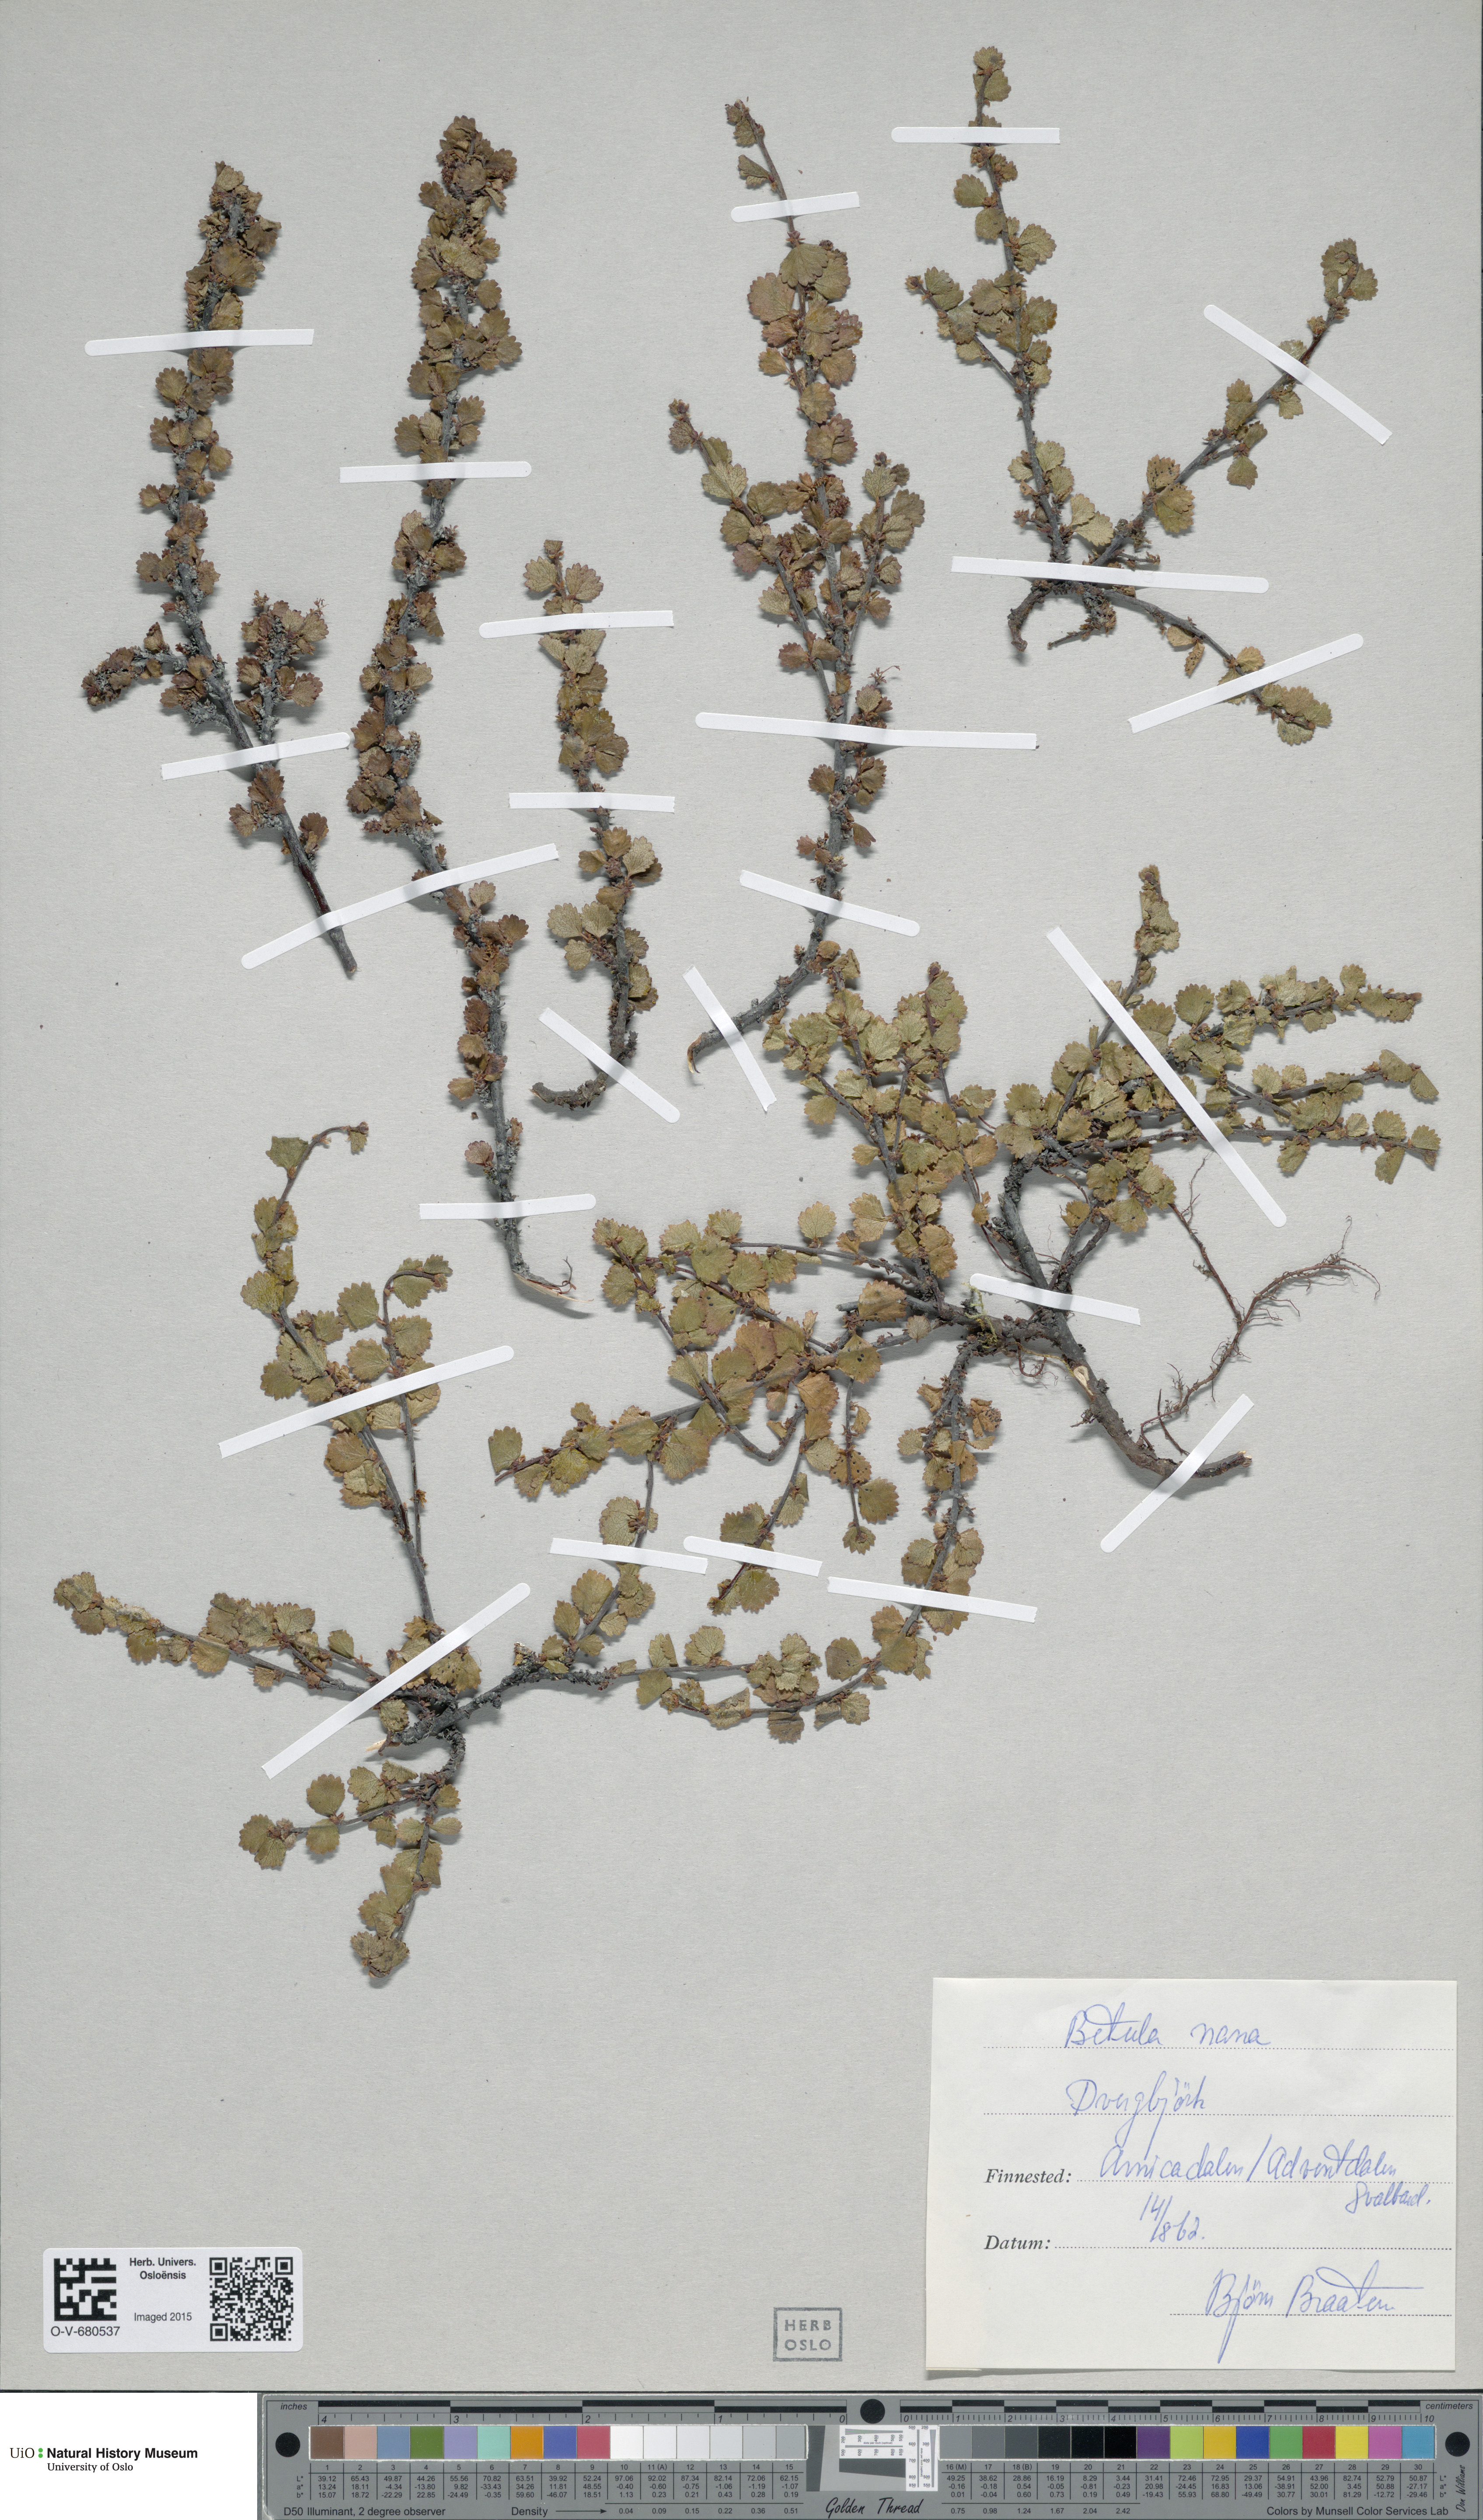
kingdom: Plantae
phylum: Tracheophyta
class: Magnoliopsida
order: Fagales
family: Betulaceae
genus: Betula
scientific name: Betula nana
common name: Arctic dwarf birch
